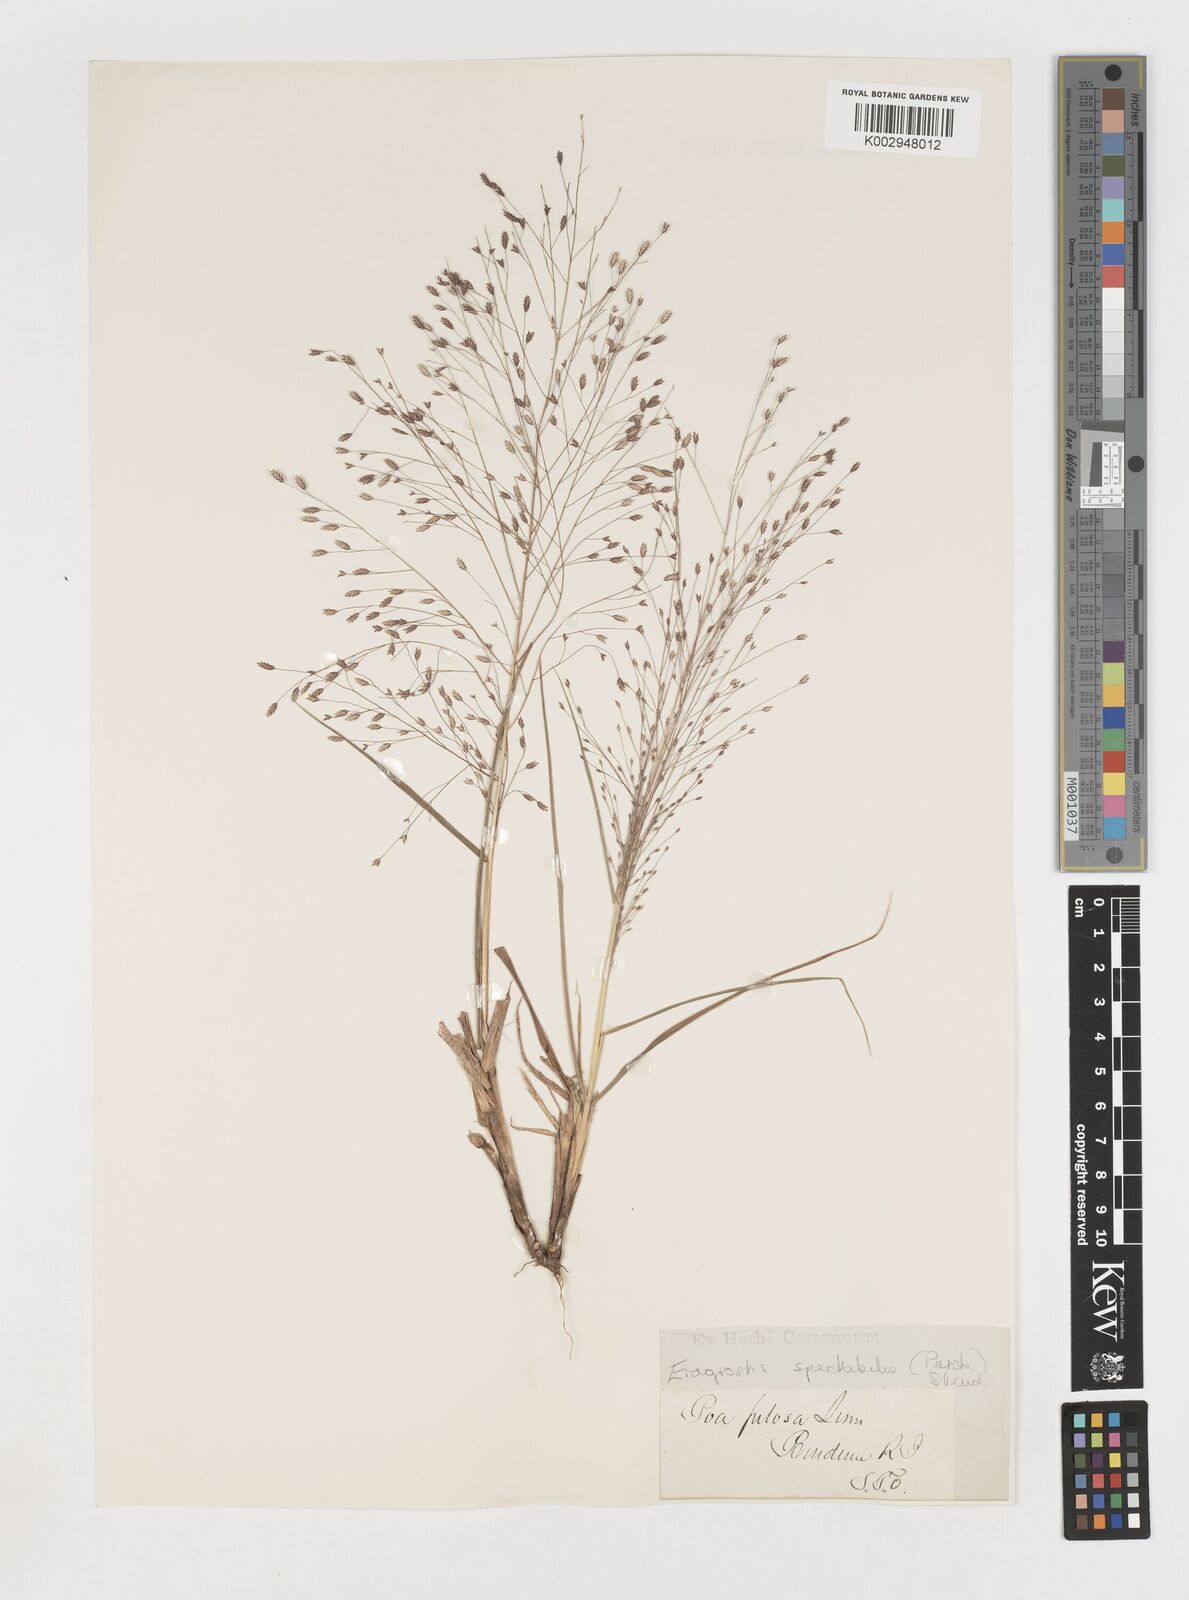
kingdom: Plantae
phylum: Tracheophyta
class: Liliopsida
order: Poales
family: Poaceae
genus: Eragrostis
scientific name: Eragrostis spectabilis
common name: Petticoat-climber
